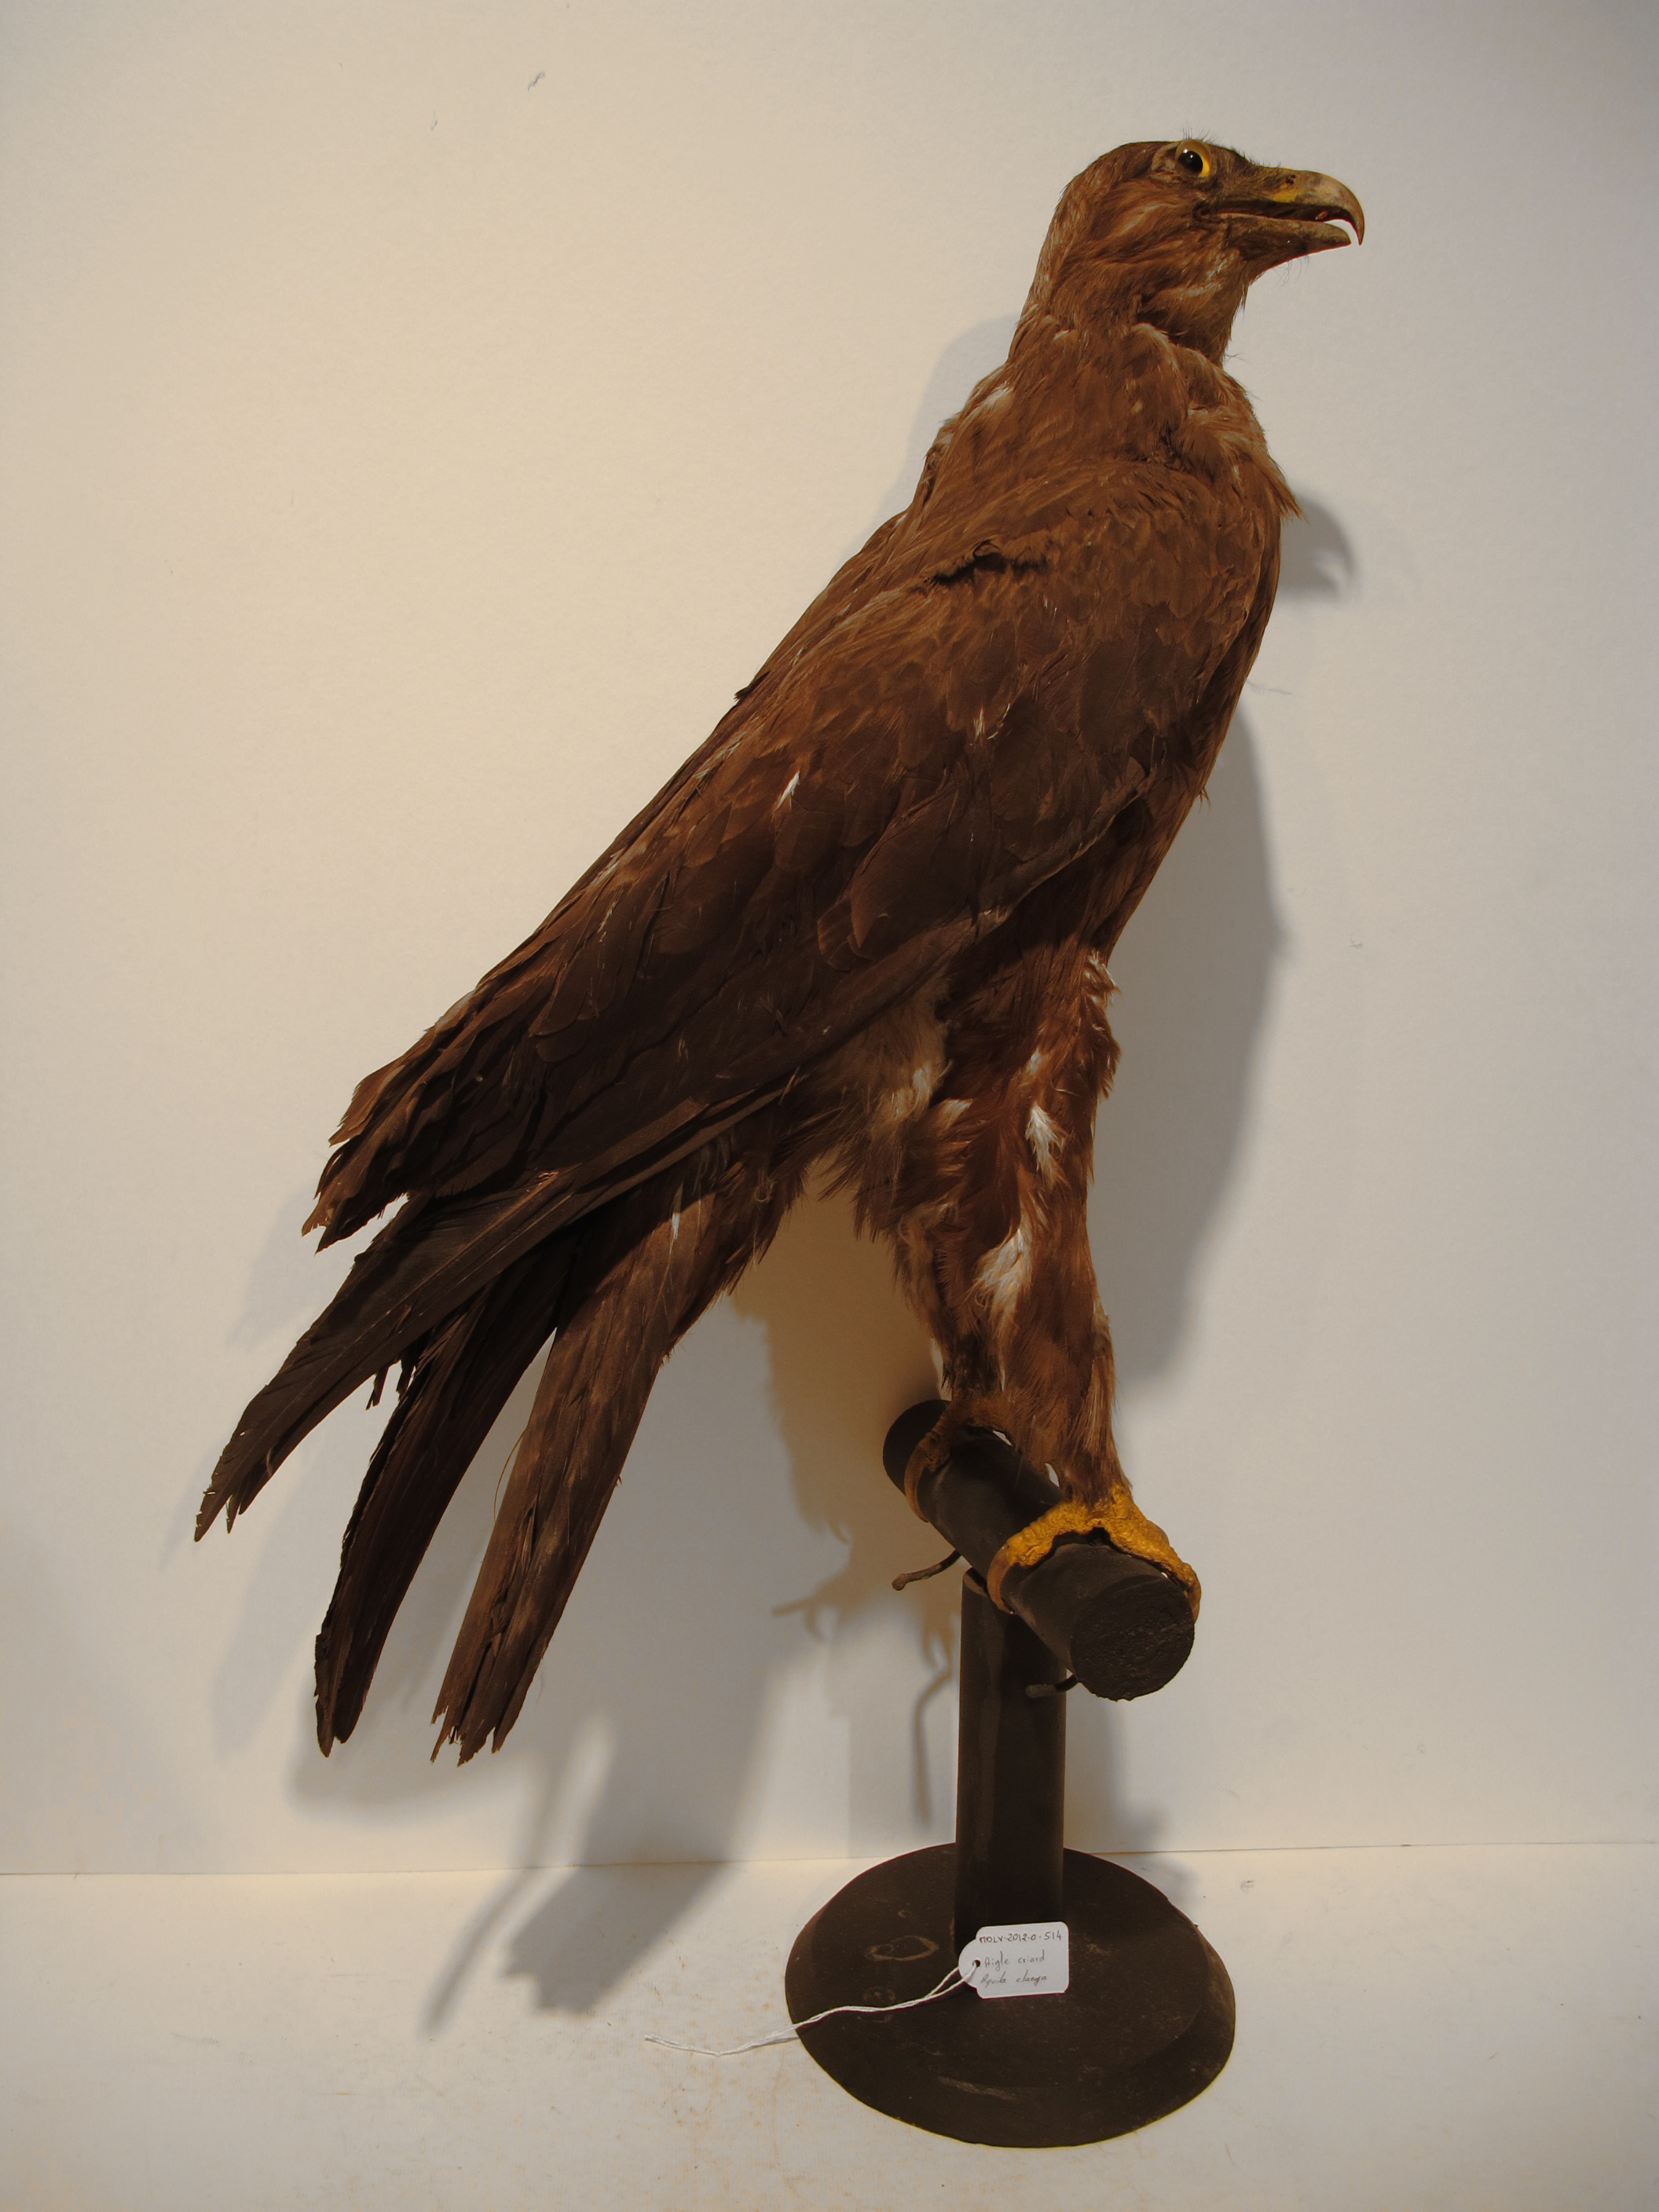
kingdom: Animalia
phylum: Chordata
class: Aves
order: Accipitriformes
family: Accipitridae
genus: Aquila
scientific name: Aquila clanga
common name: Greater Spotted Eagle
